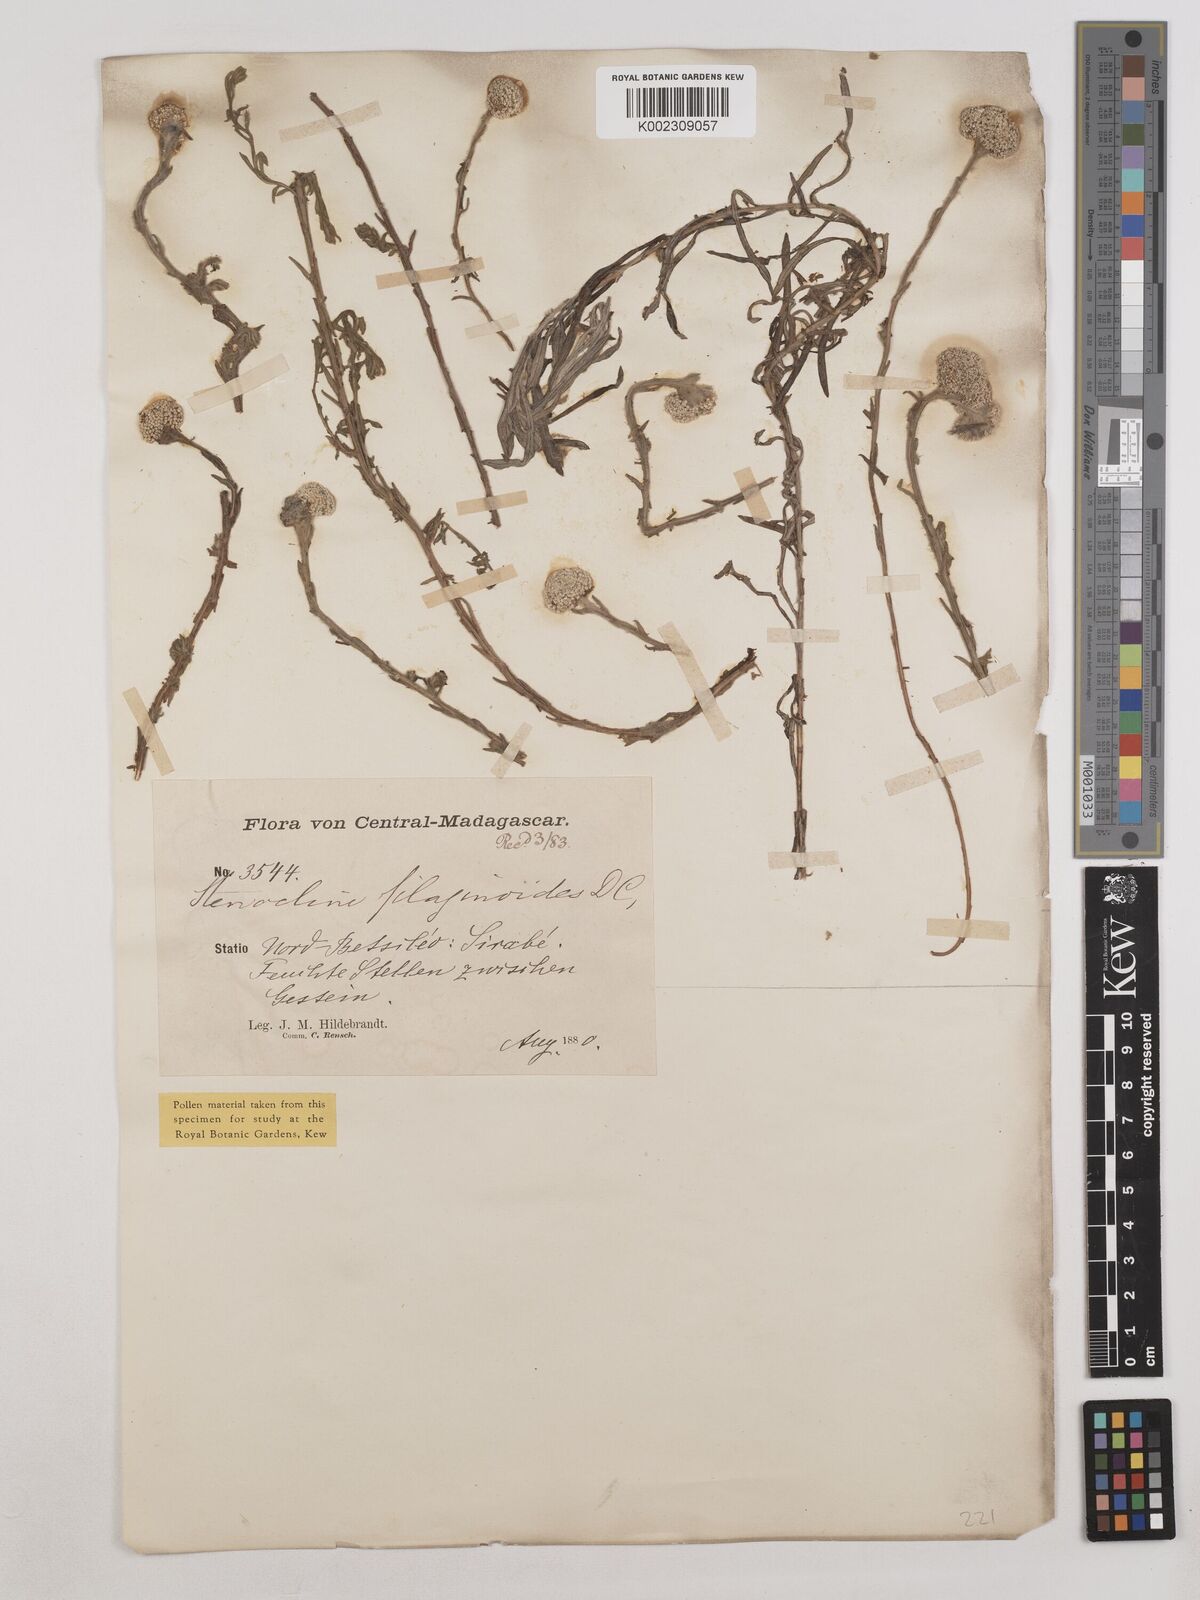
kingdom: Plantae
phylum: Tracheophyta
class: Magnoliopsida
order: Asterales
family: Asteraceae
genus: Helichrysum
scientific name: Helichrysum filaginoides
